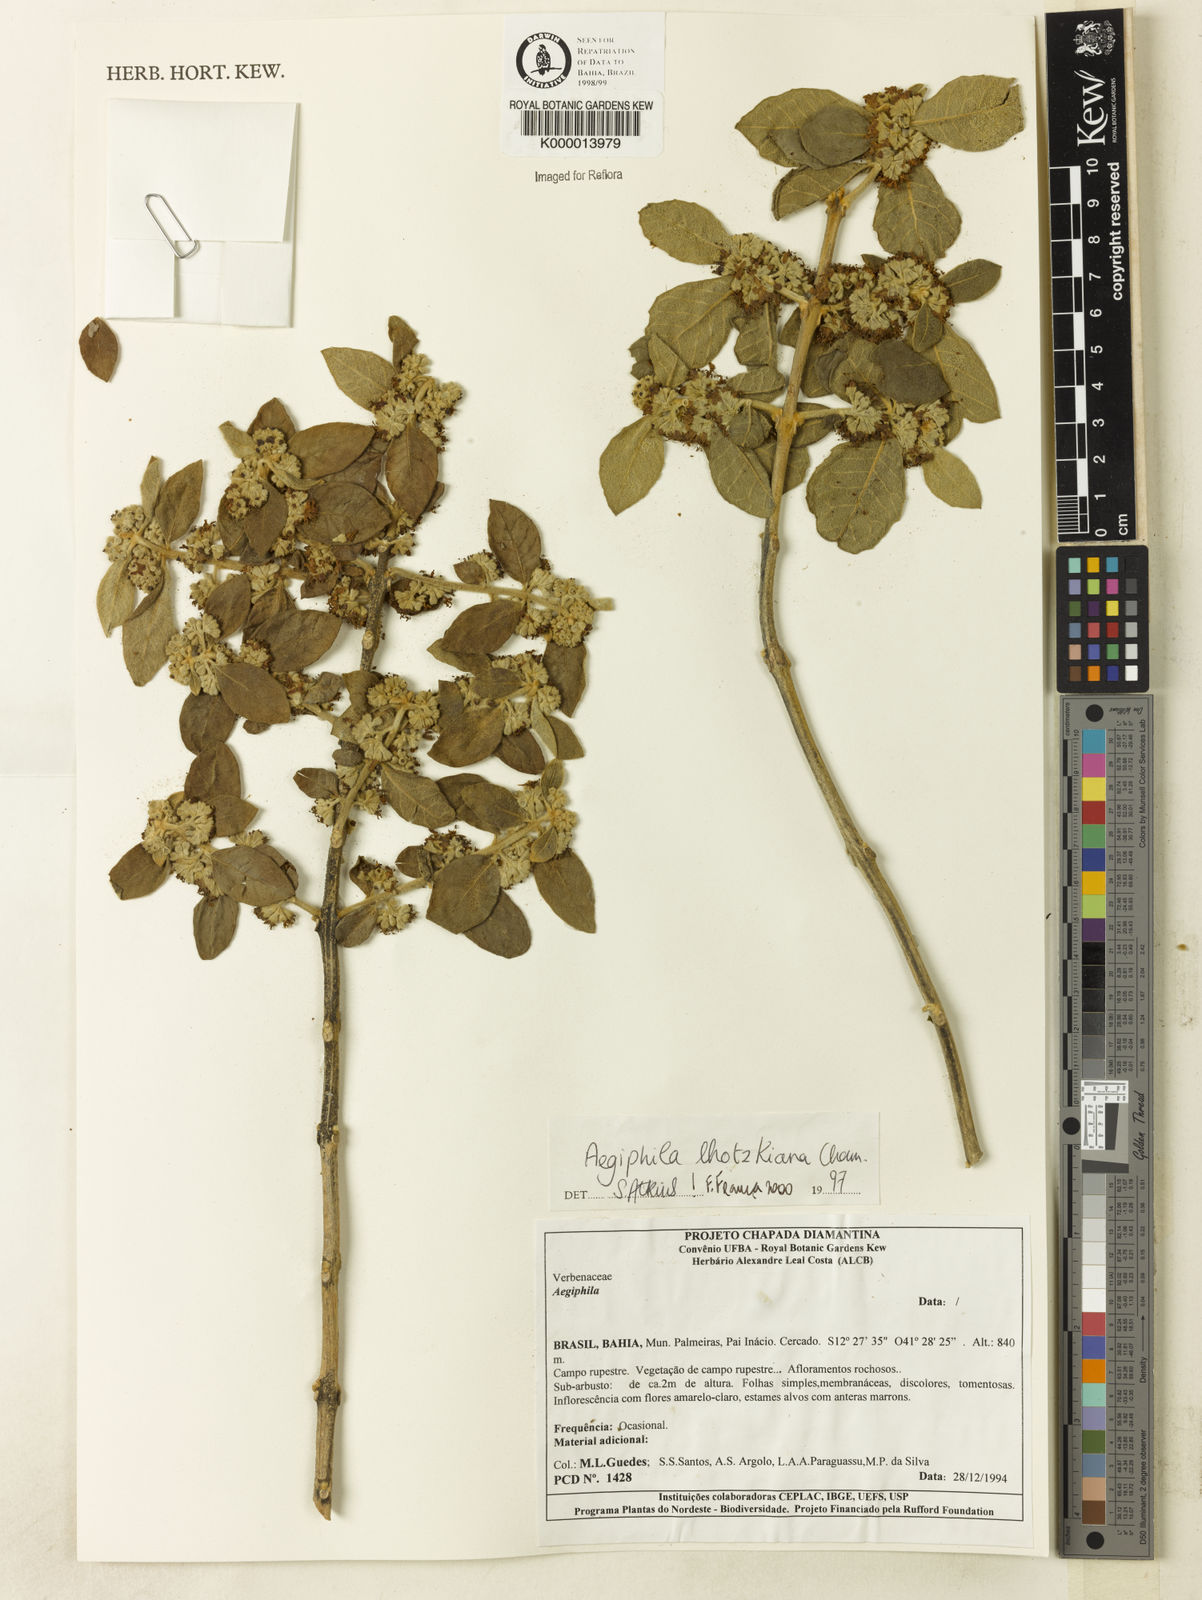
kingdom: Plantae
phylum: Tracheophyta
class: Magnoliopsida
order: Lamiales
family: Lamiaceae
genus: Aegiphila
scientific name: Aegiphila verticillata
